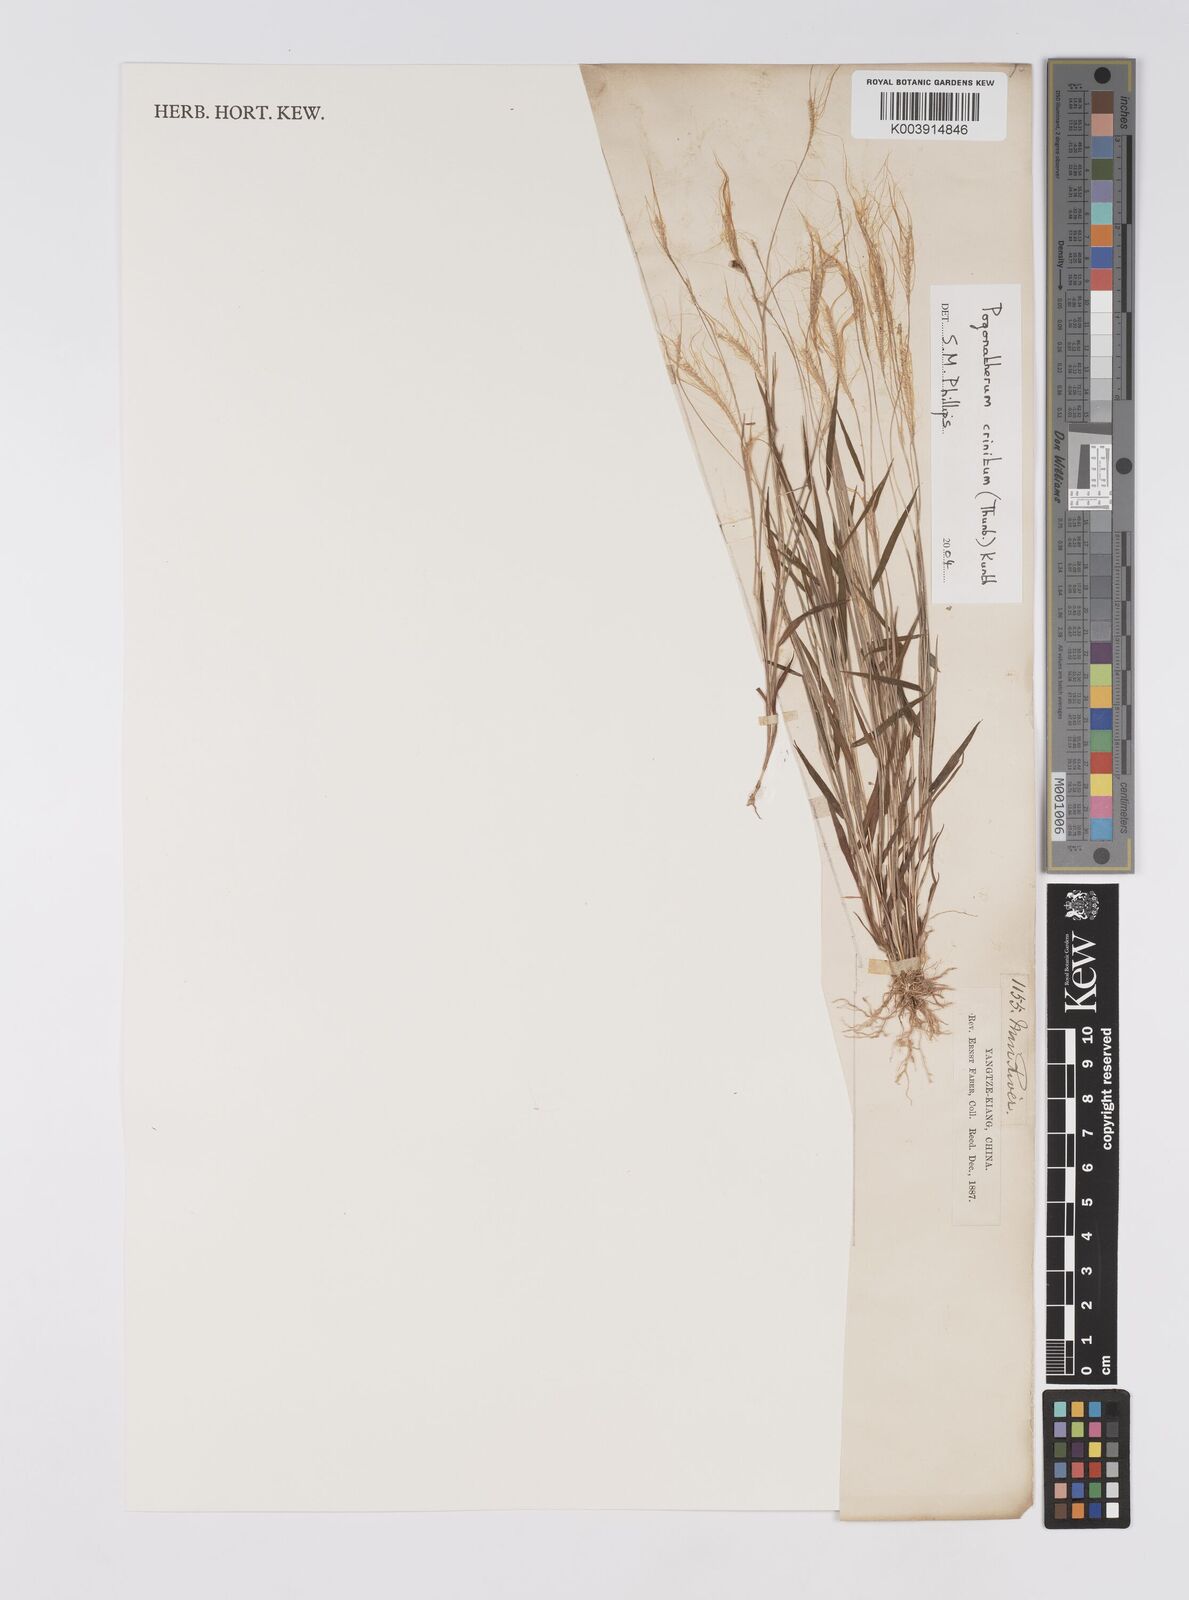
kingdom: Plantae
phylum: Tracheophyta
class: Liliopsida
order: Poales
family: Poaceae
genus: Pogonatherum
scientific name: Pogonatherum crinitum
